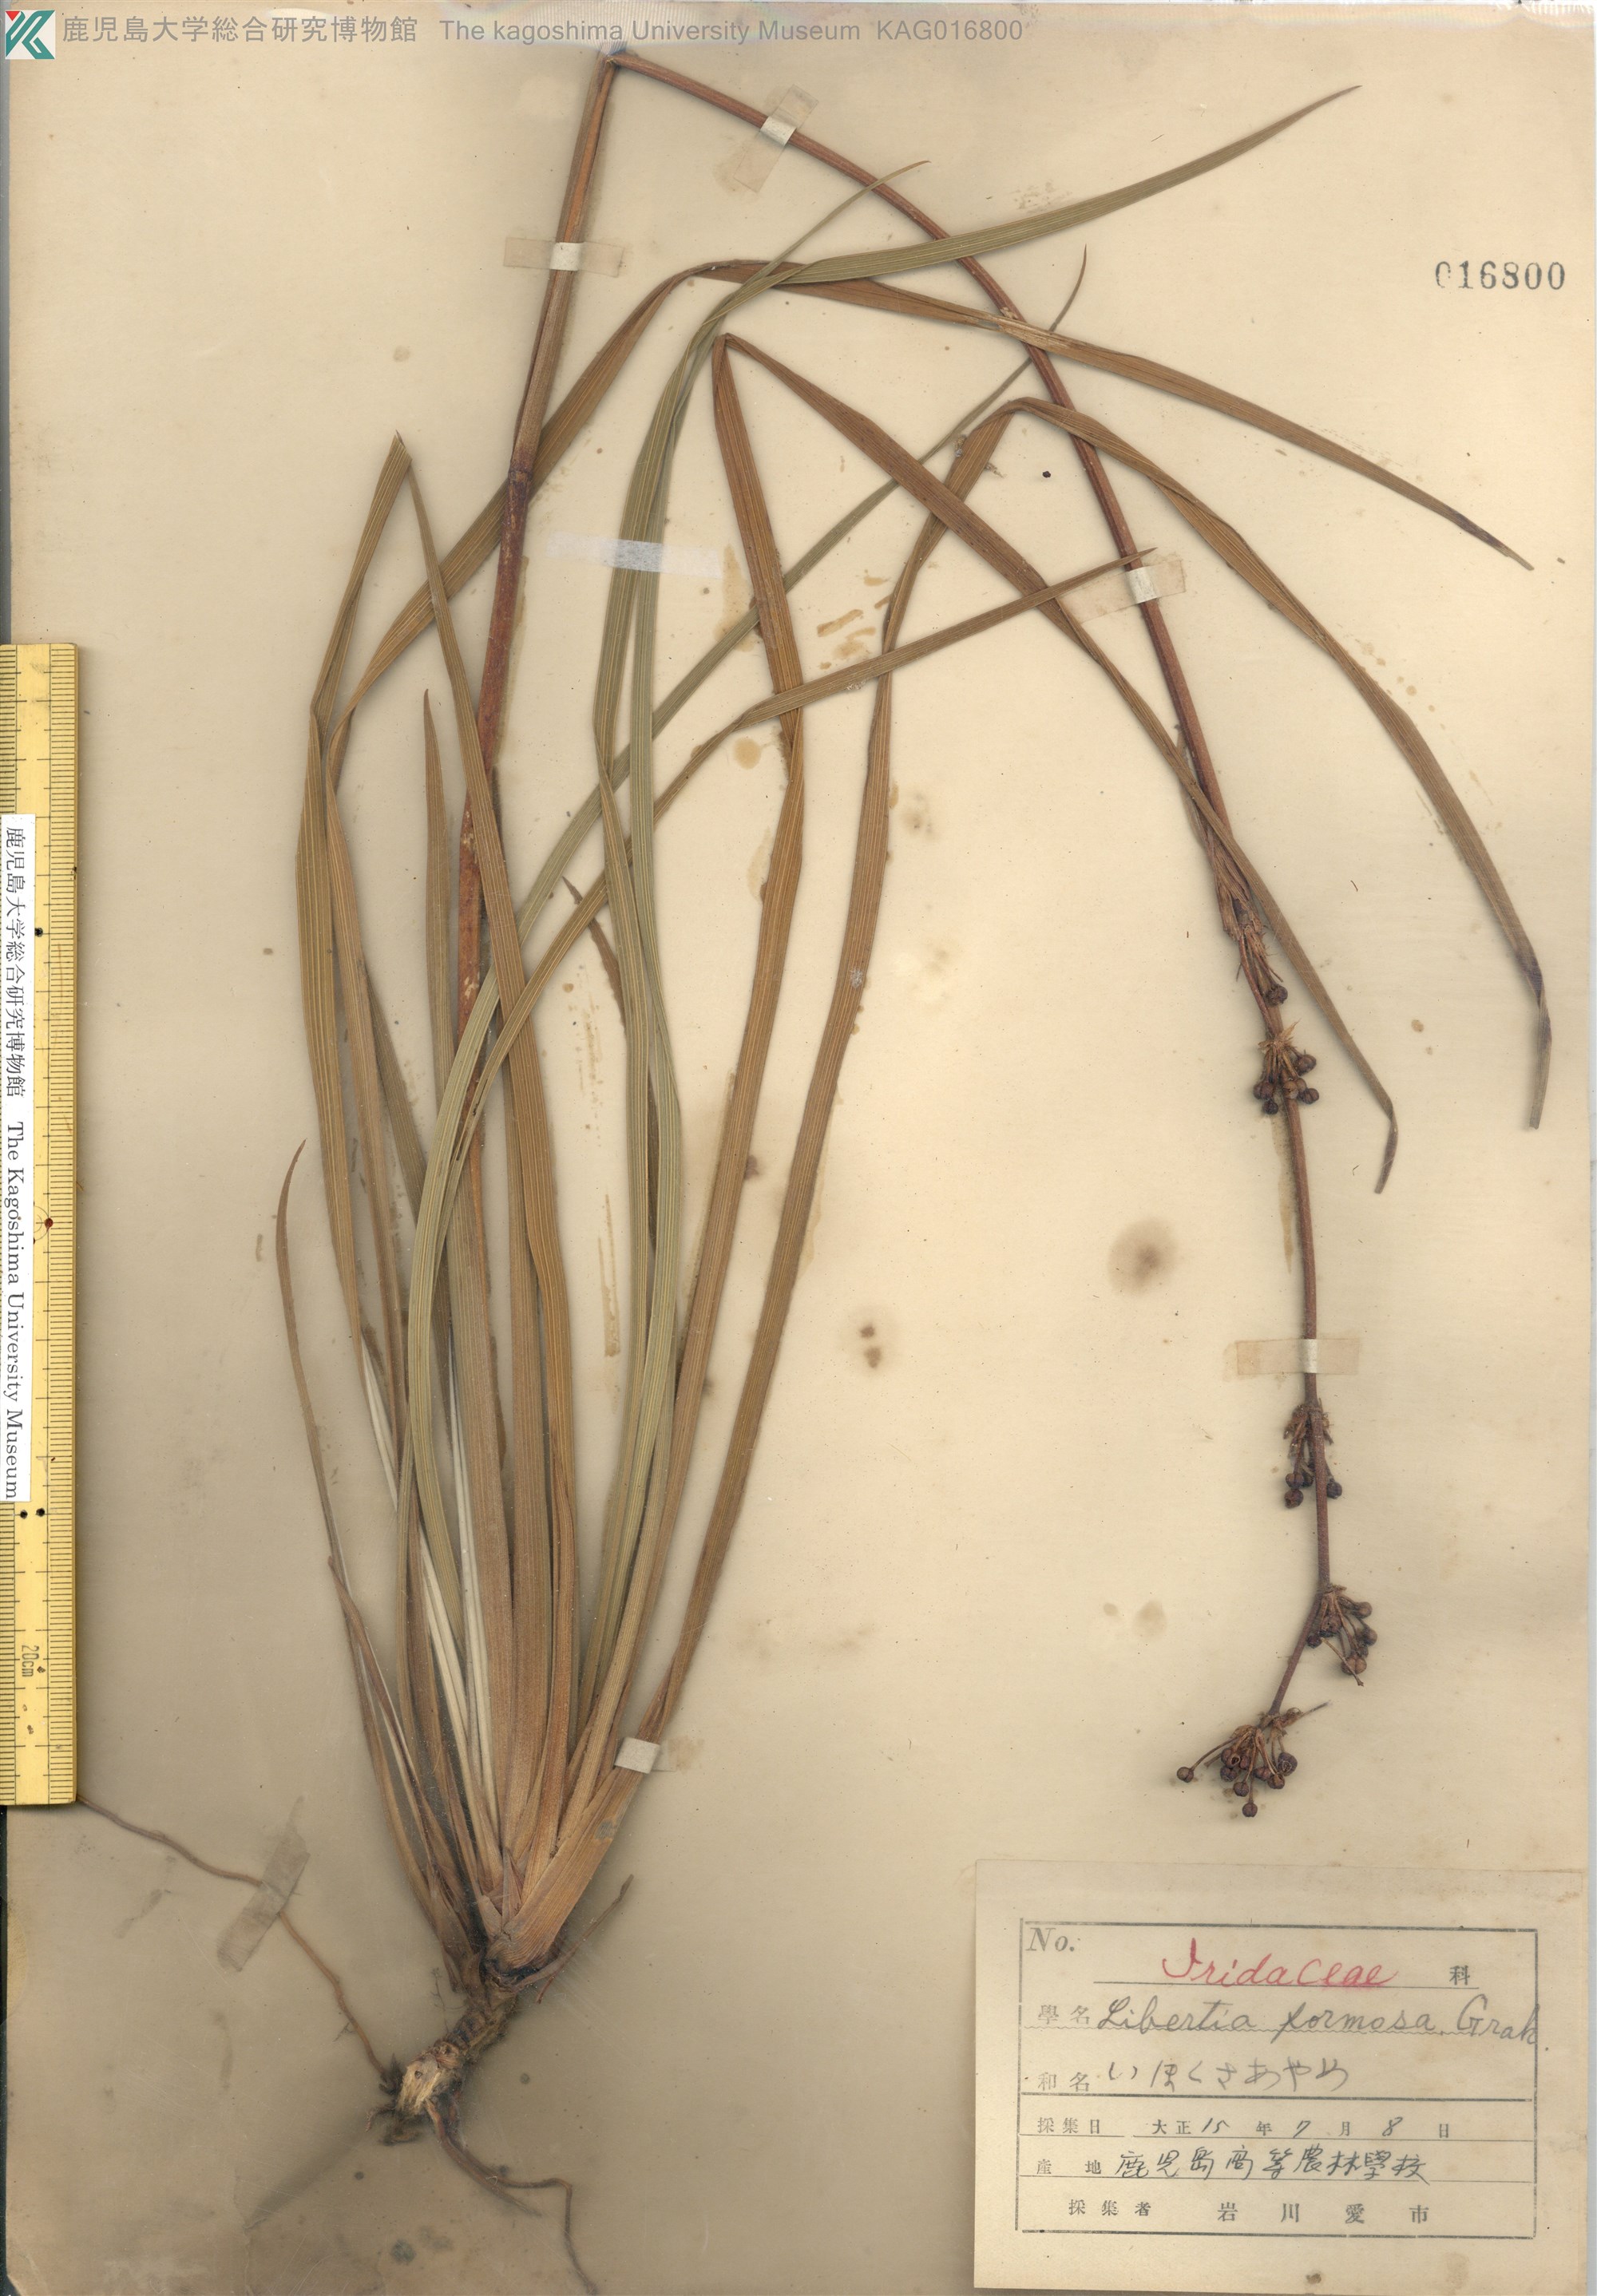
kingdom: Plantae
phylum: Tracheophyta
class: Liliopsida
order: Asparagales
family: Iridaceae
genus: Libertia
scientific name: Libertia chilensis
